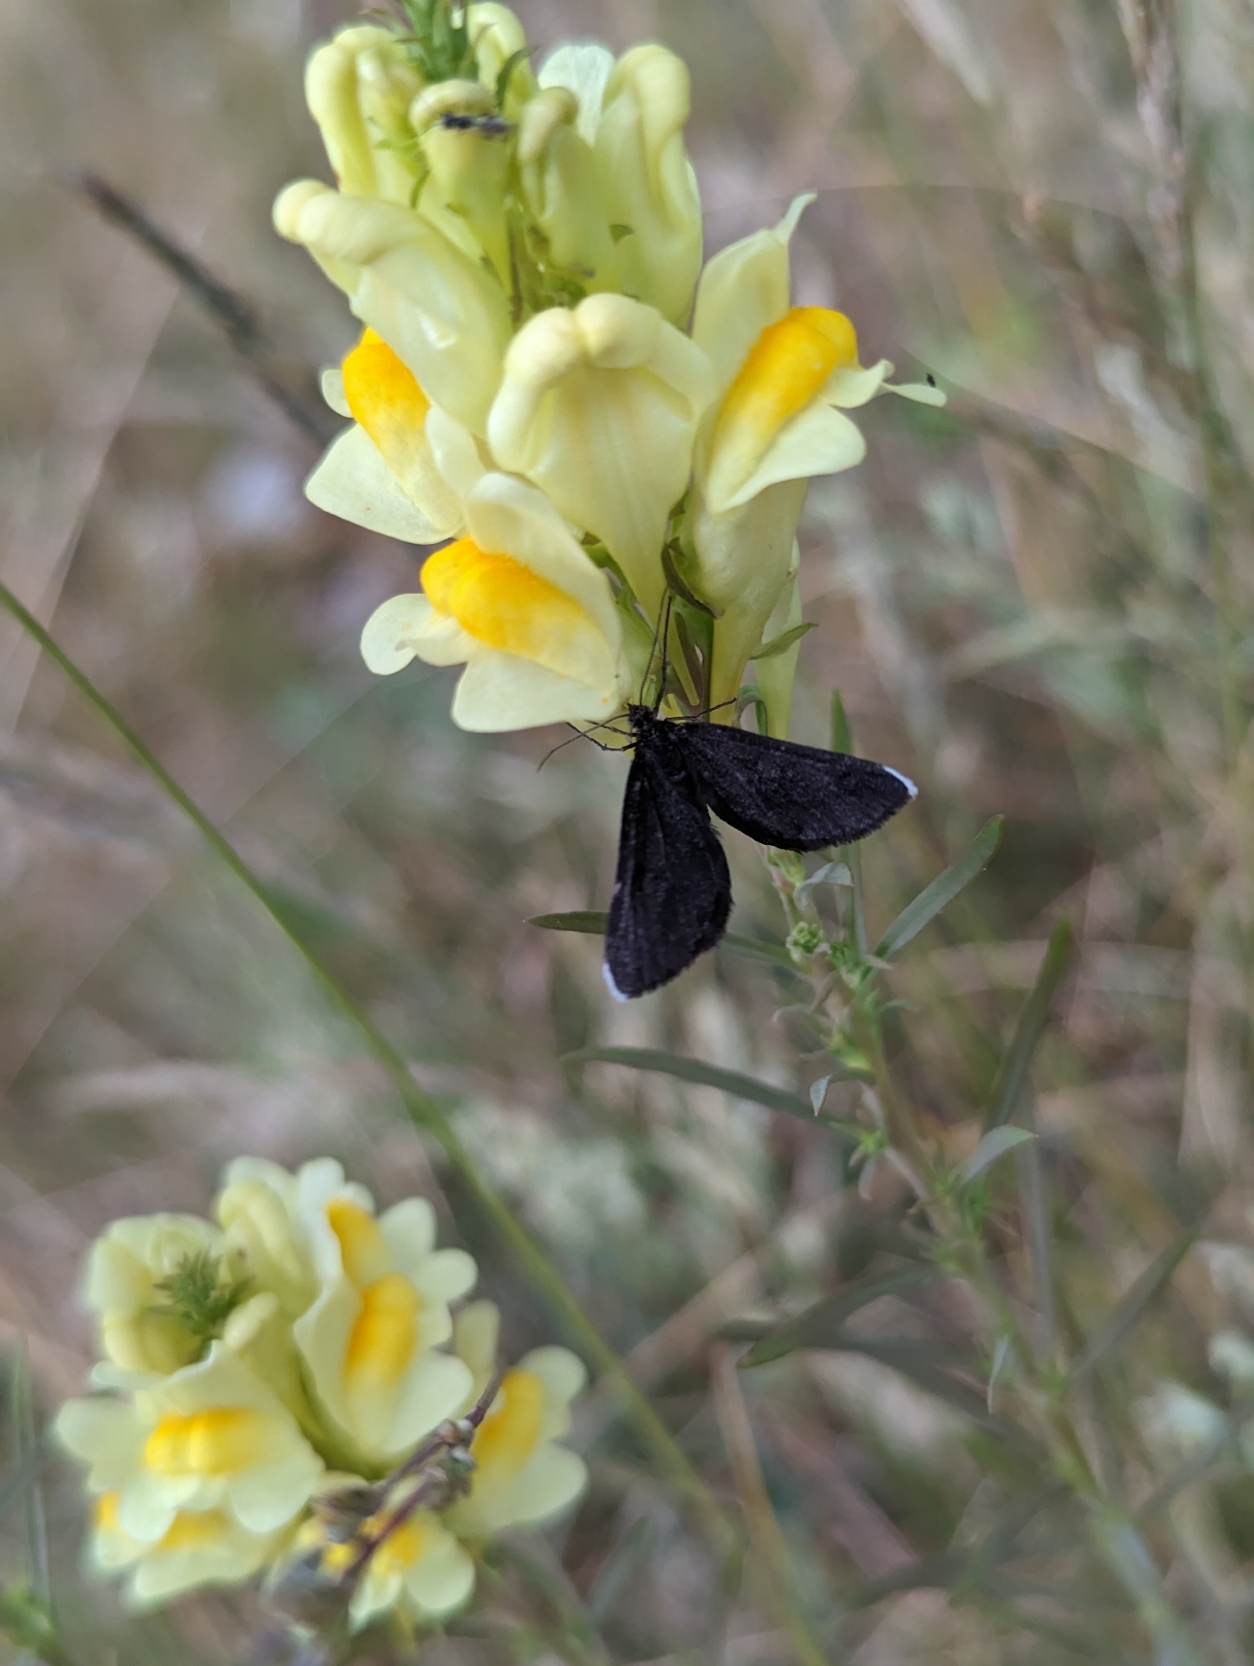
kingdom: Animalia
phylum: Arthropoda
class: Insecta
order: Lepidoptera
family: Geometridae
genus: Odezia
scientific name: Odezia atrata
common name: Sort måler
